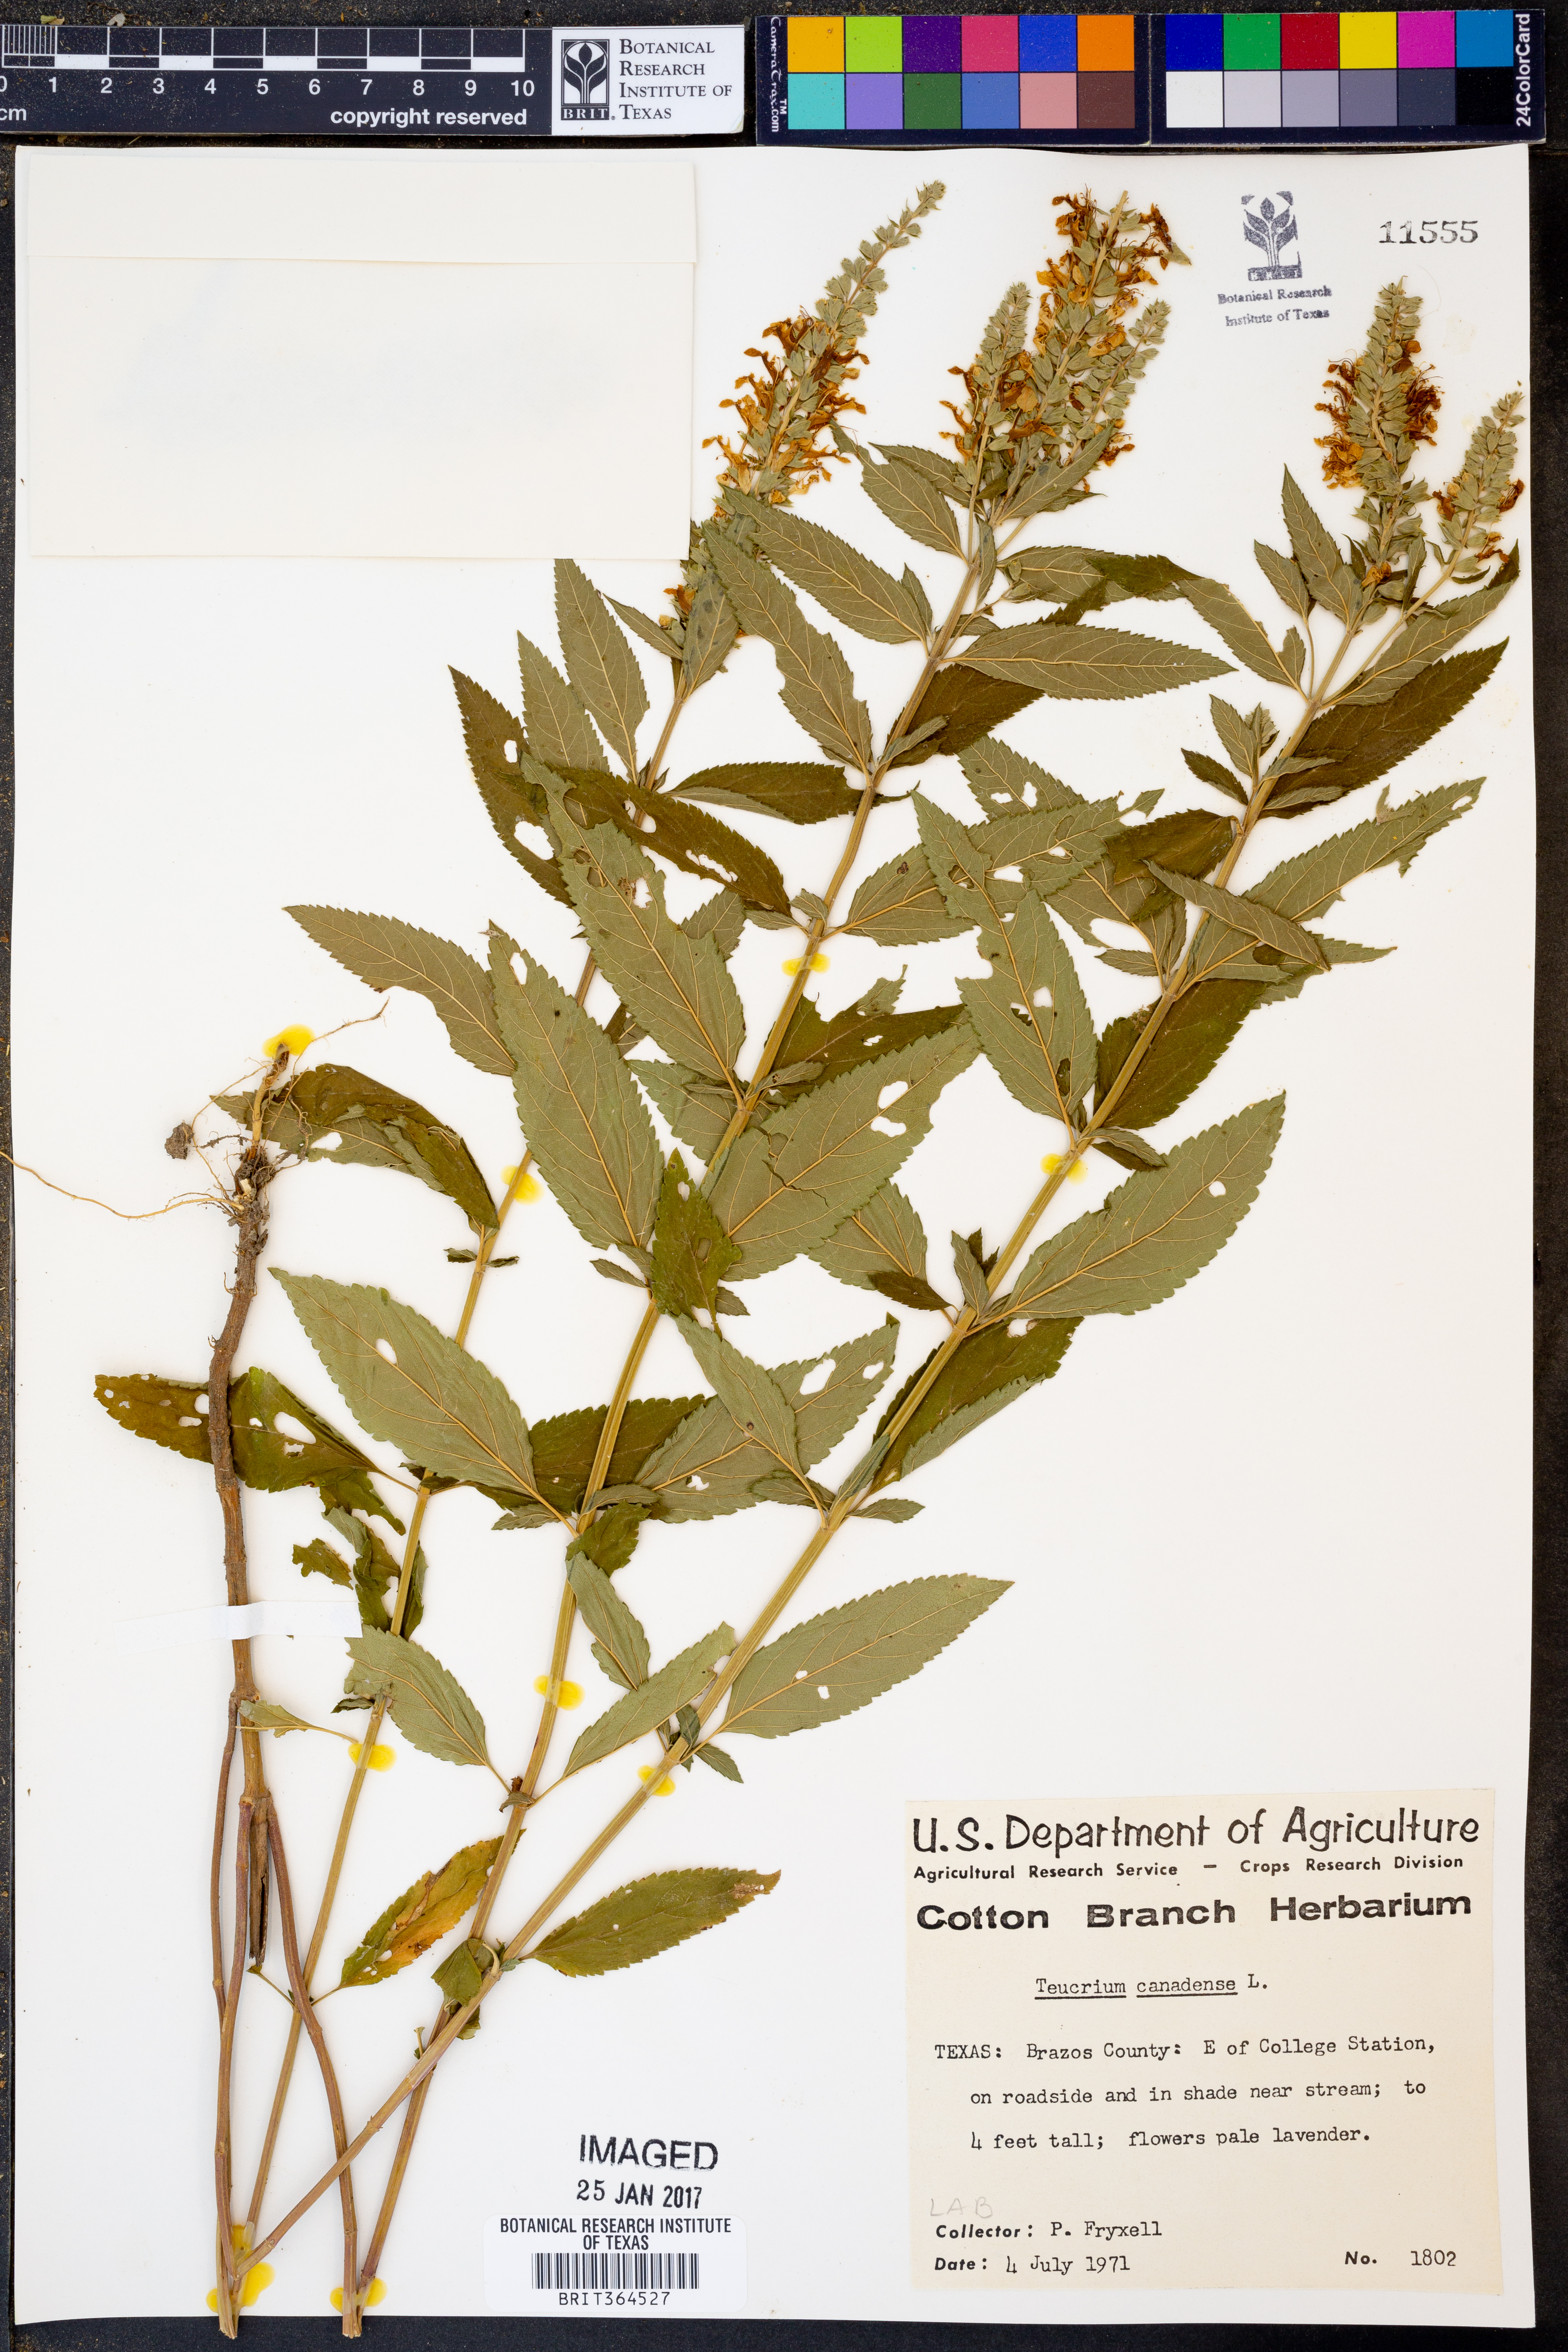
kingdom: Plantae
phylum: Tracheophyta
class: Magnoliopsida
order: Lamiales
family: Lamiaceae
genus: Teucrium
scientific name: Teucrium canadense
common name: American germander
